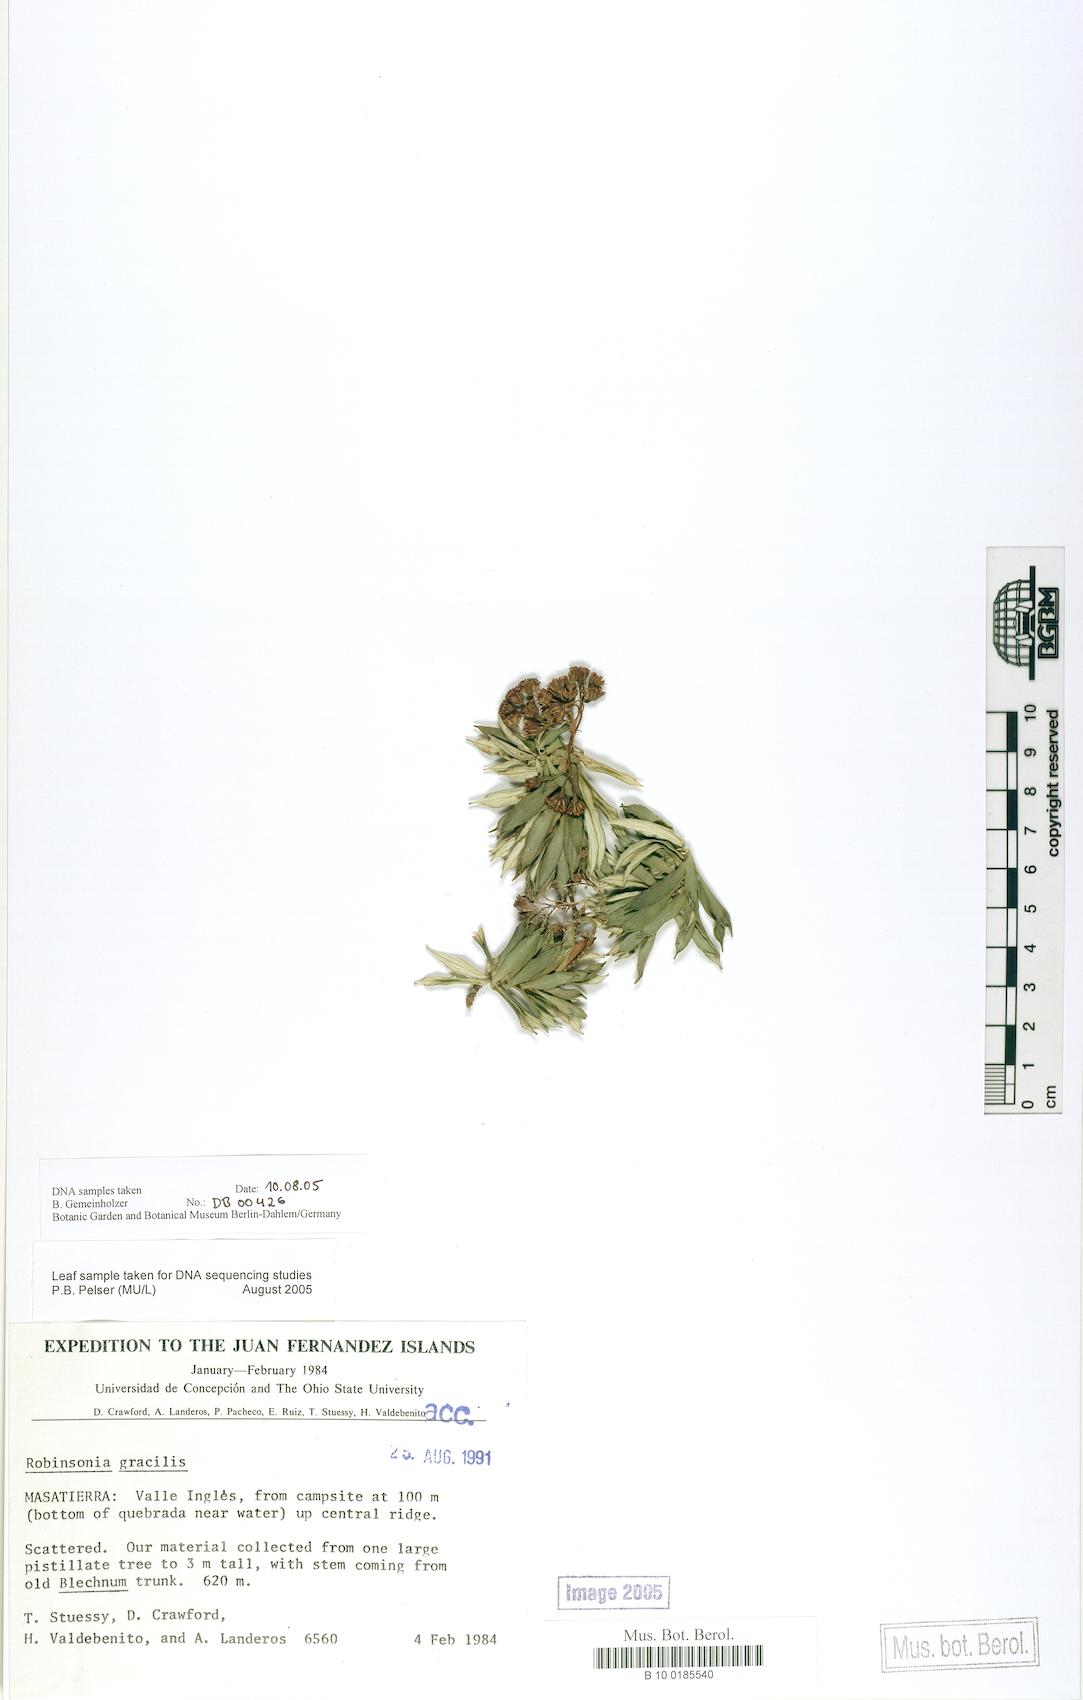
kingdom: Plantae
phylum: Tracheophyta
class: Magnoliopsida
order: Asterales
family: Asteraceae
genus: Robinsonia
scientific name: Robinsonia gracilis
